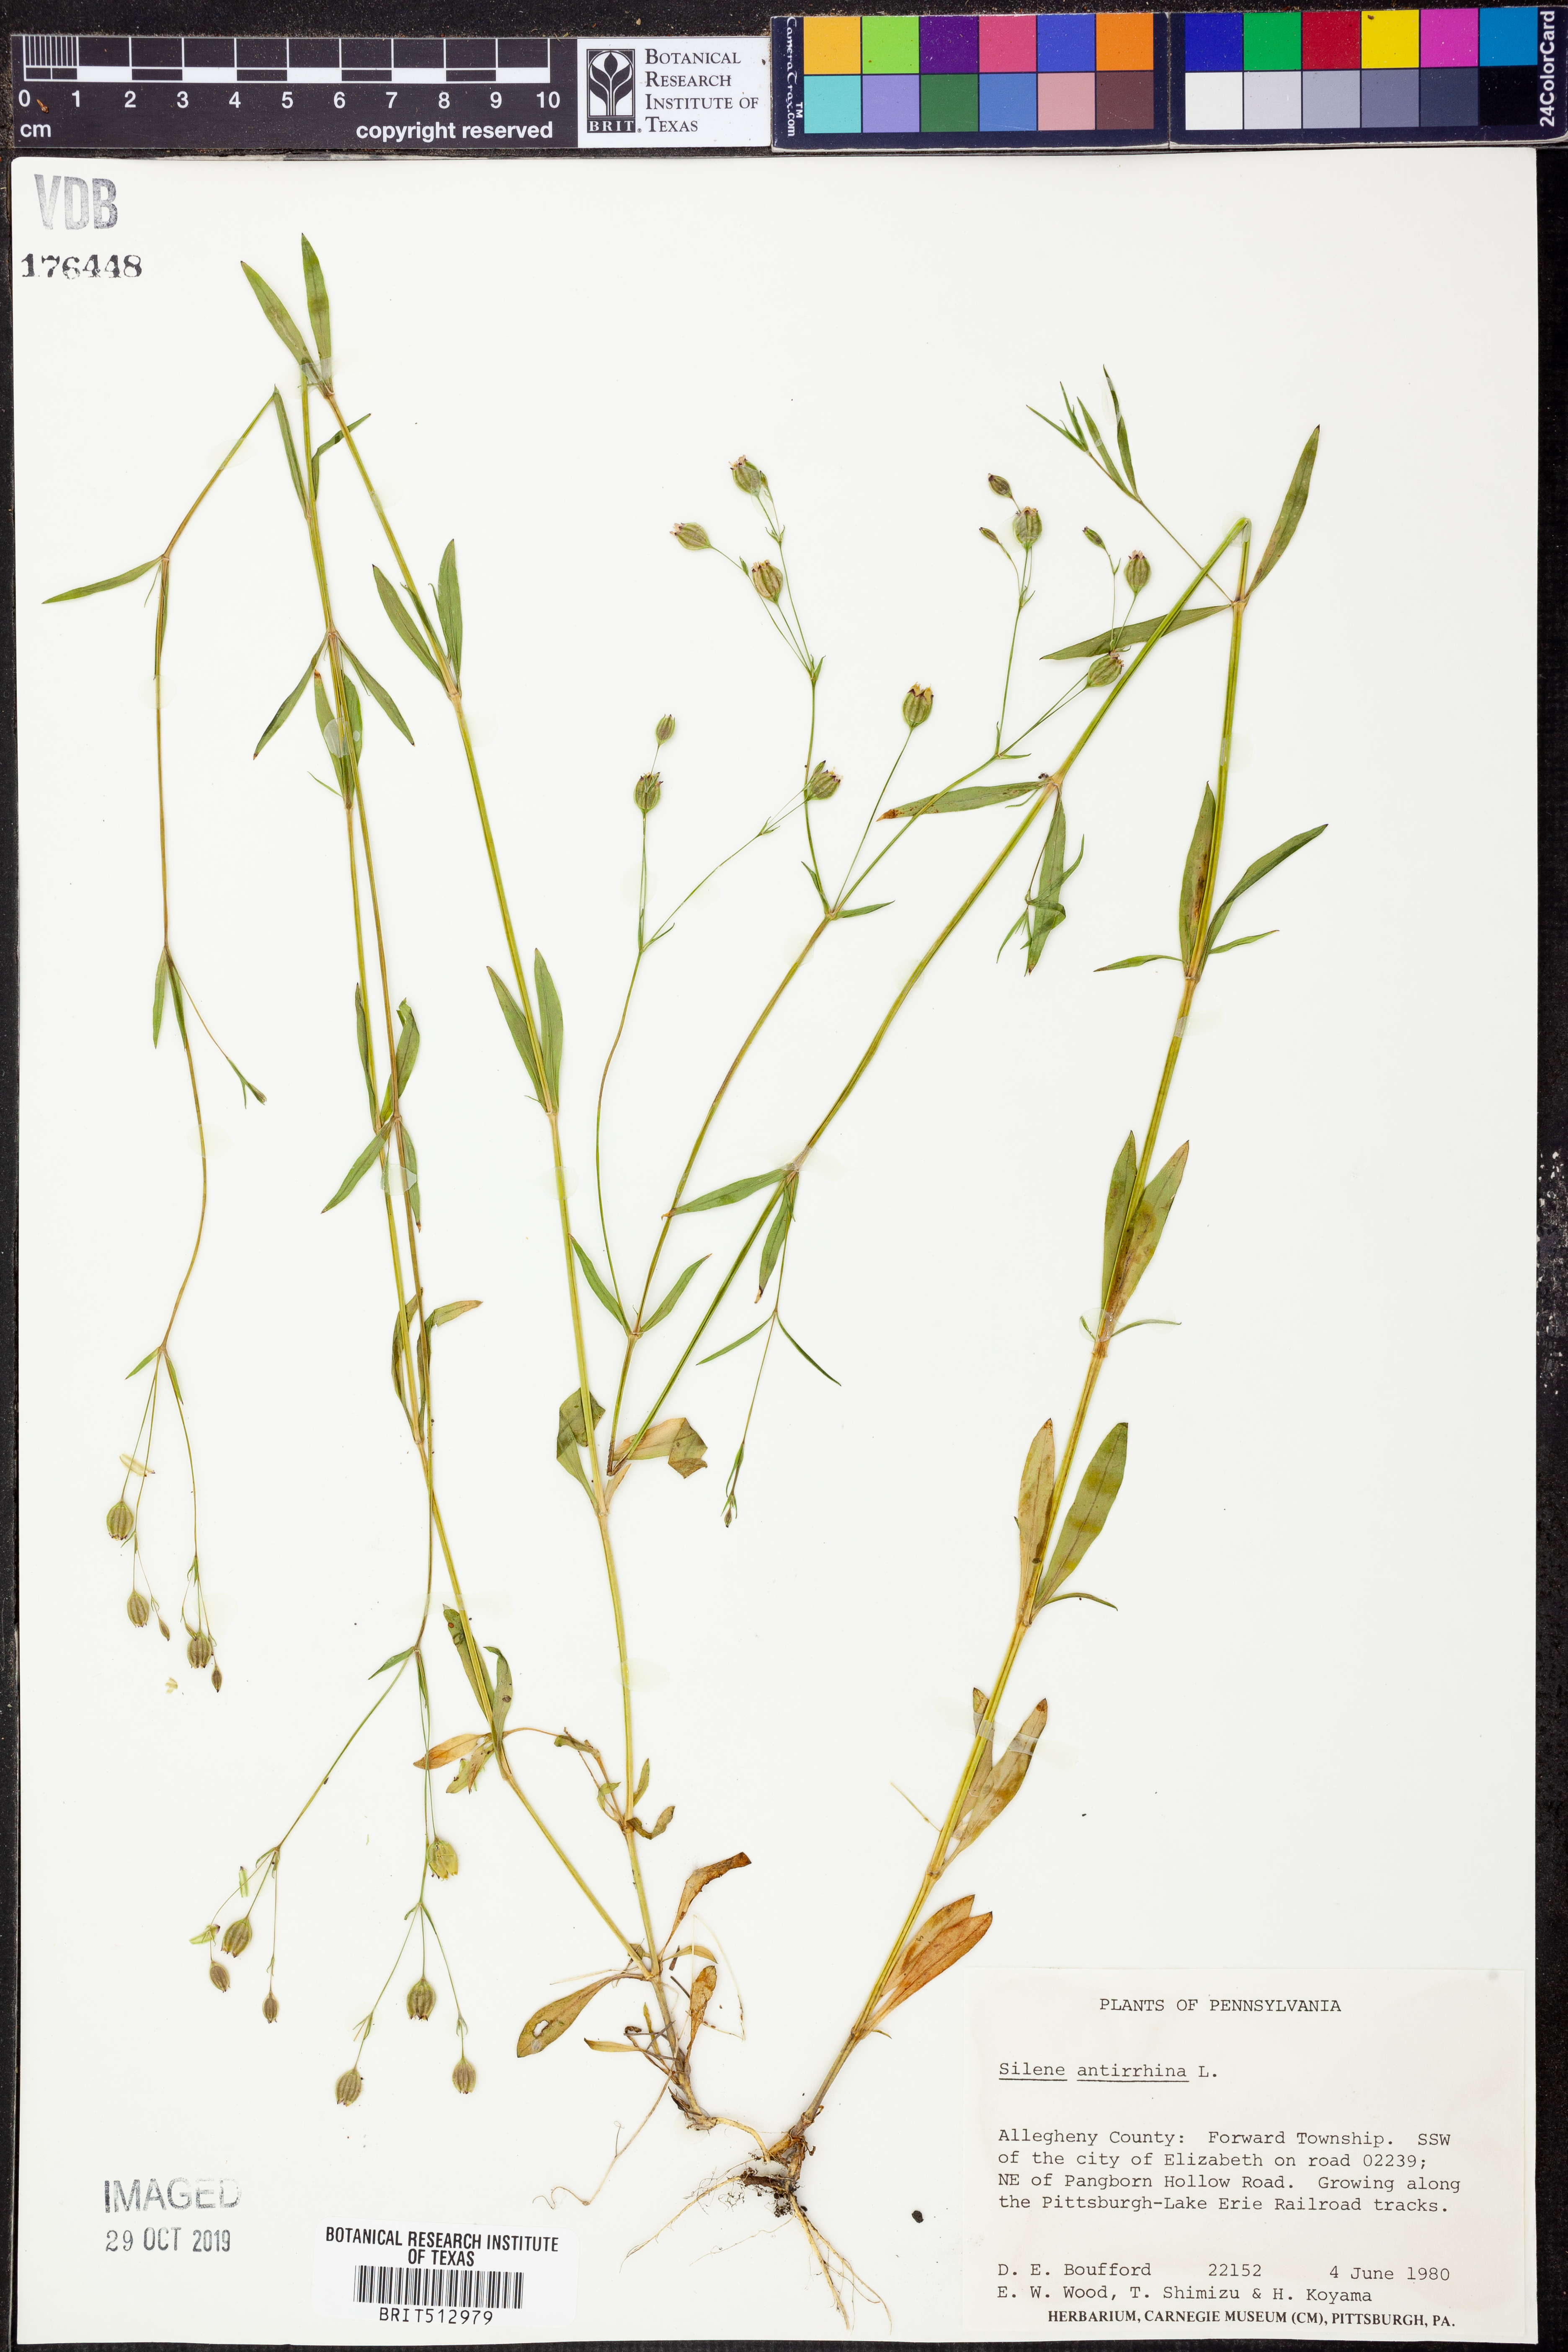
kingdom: Plantae
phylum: Tracheophyta
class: Magnoliopsida
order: Caryophyllales
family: Caryophyllaceae
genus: Silene
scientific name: Silene antirrhina
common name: Sleepy catchfly
